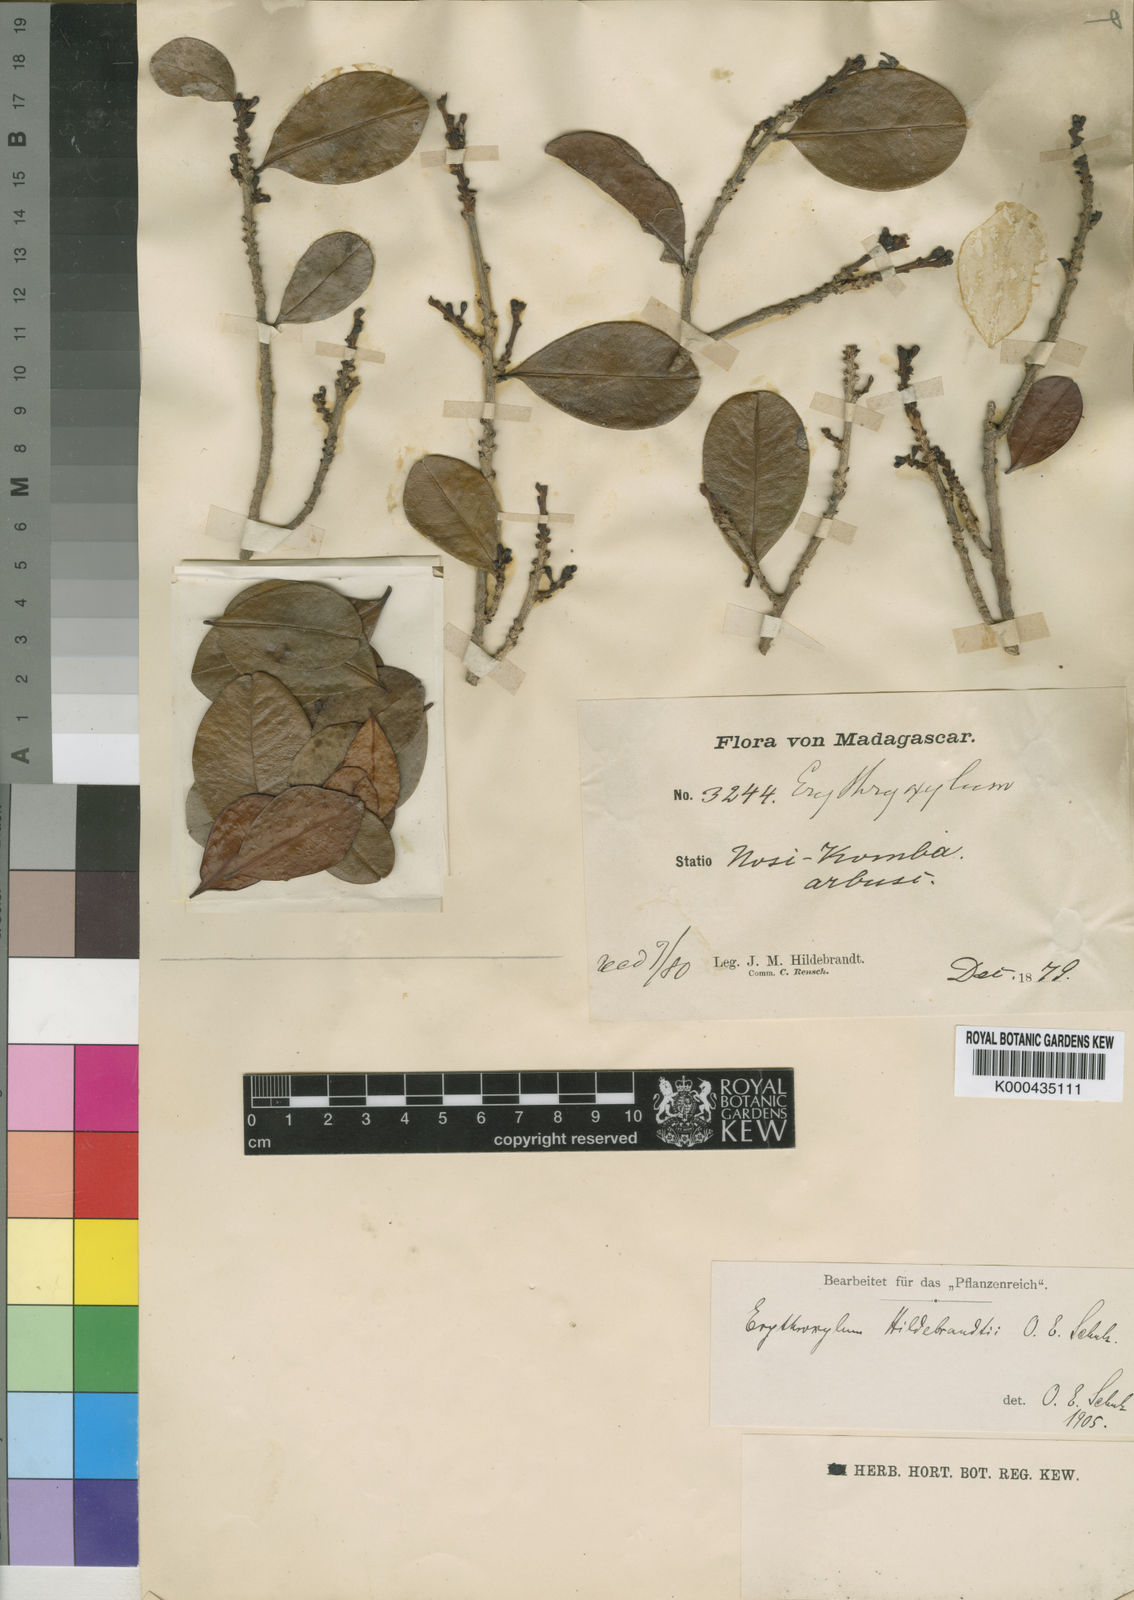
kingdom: Plantae
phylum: Tracheophyta
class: Magnoliopsida
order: Malpighiales
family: Erythroxylaceae
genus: Erythroxylum
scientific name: Erythroxylum coffeifolium
